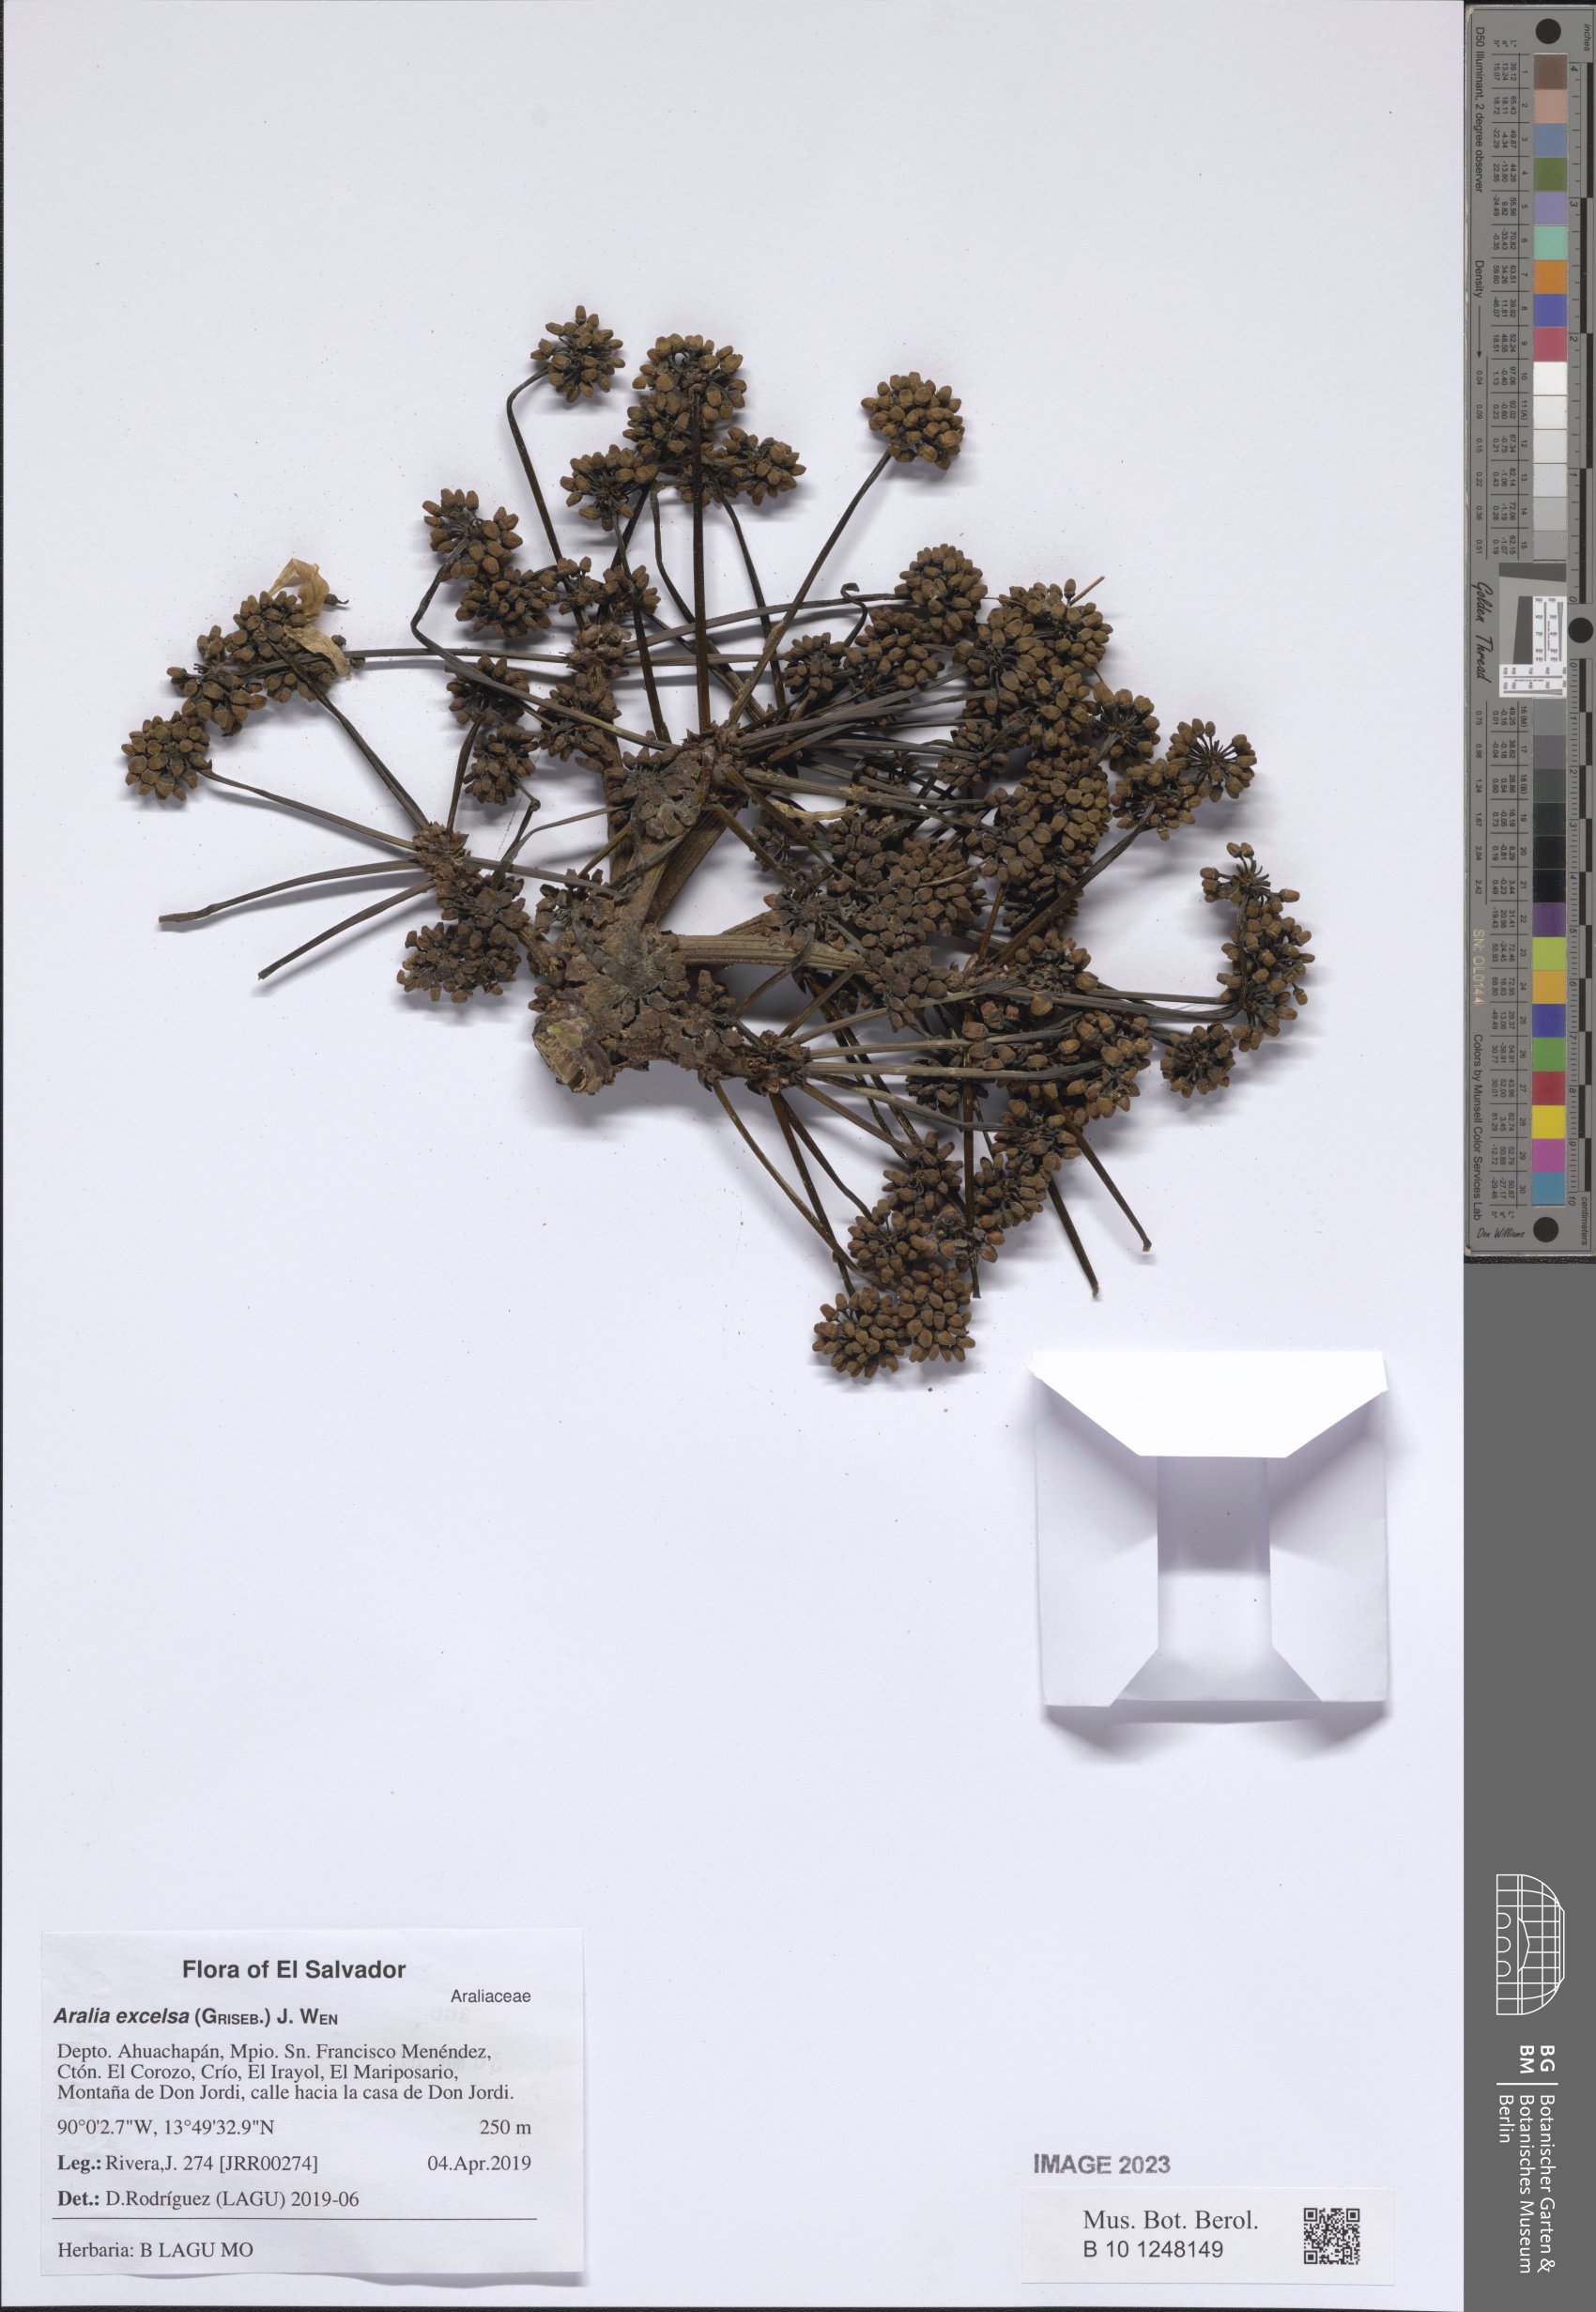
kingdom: Plantae
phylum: Tracheophyta
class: Magnoliopsida
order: Apiales
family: Araliaceae
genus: Aralia
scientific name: Aralia excelsa
